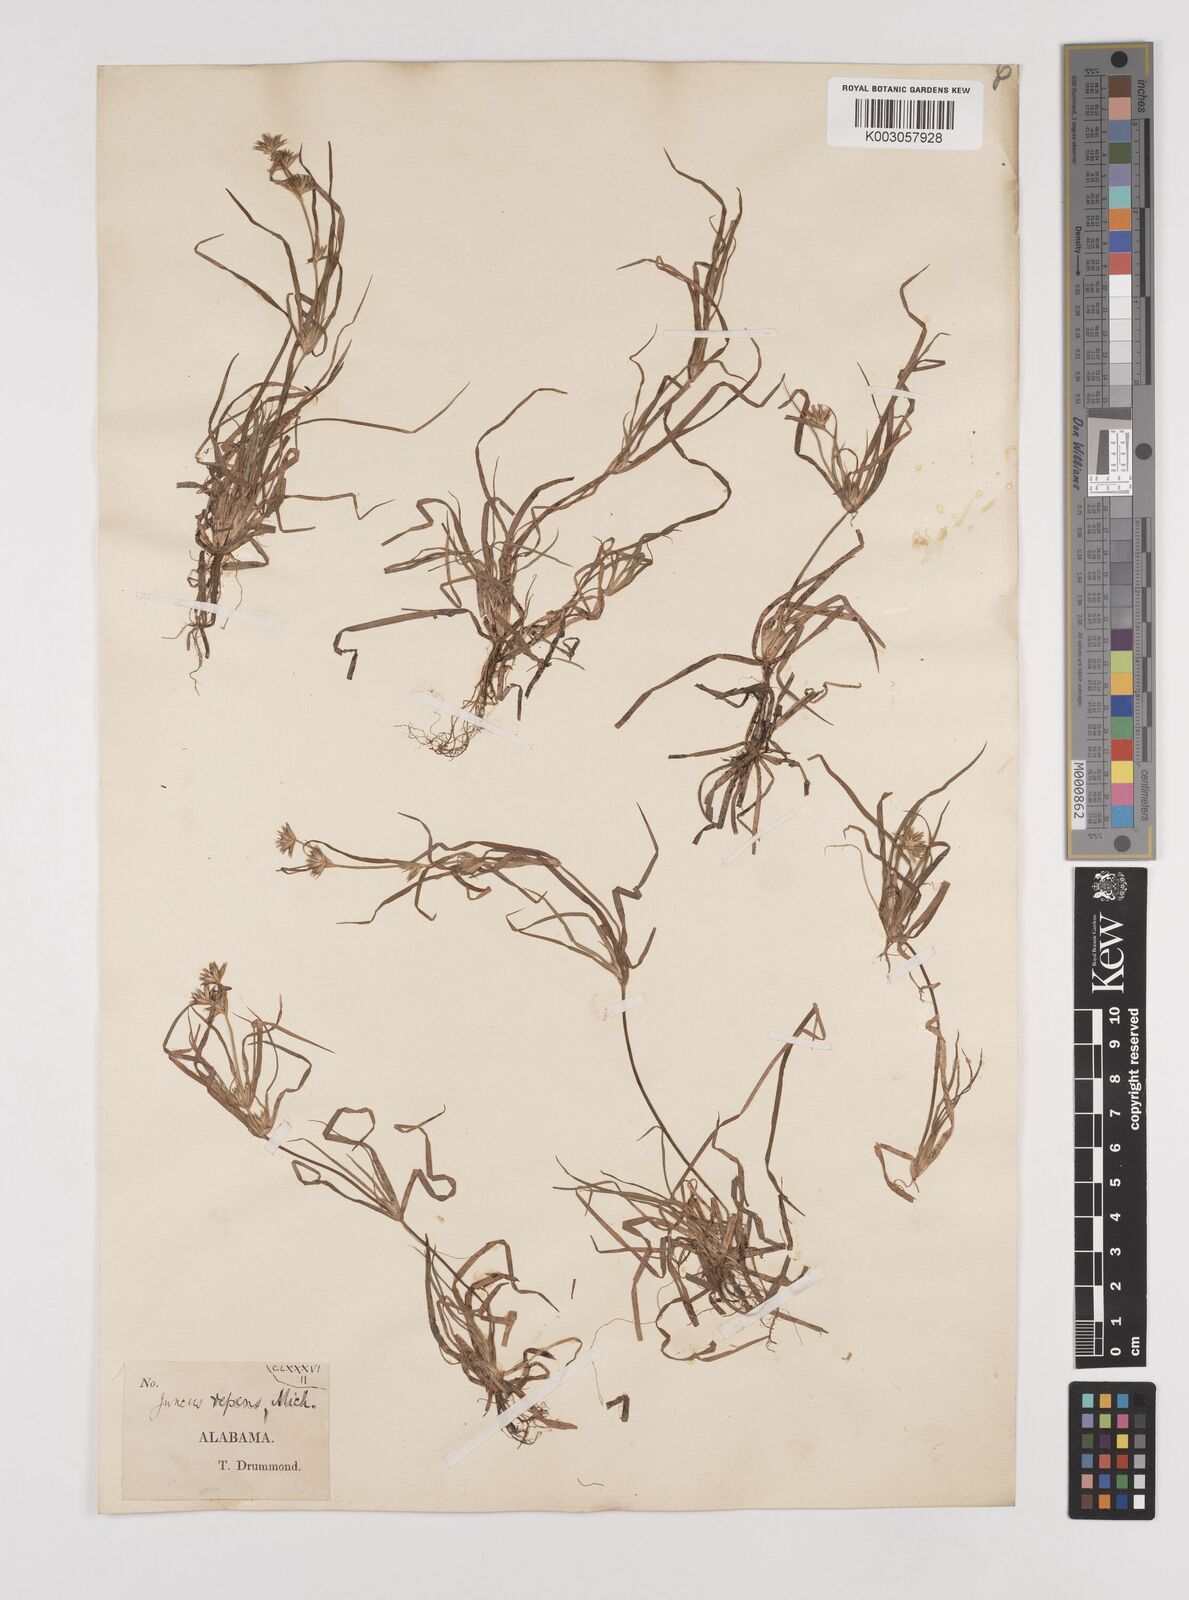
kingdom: Plantae
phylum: Tracheophyta
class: Liliopsida
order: Poales
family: Juncaceae
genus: Juncus
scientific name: Juncus repens
